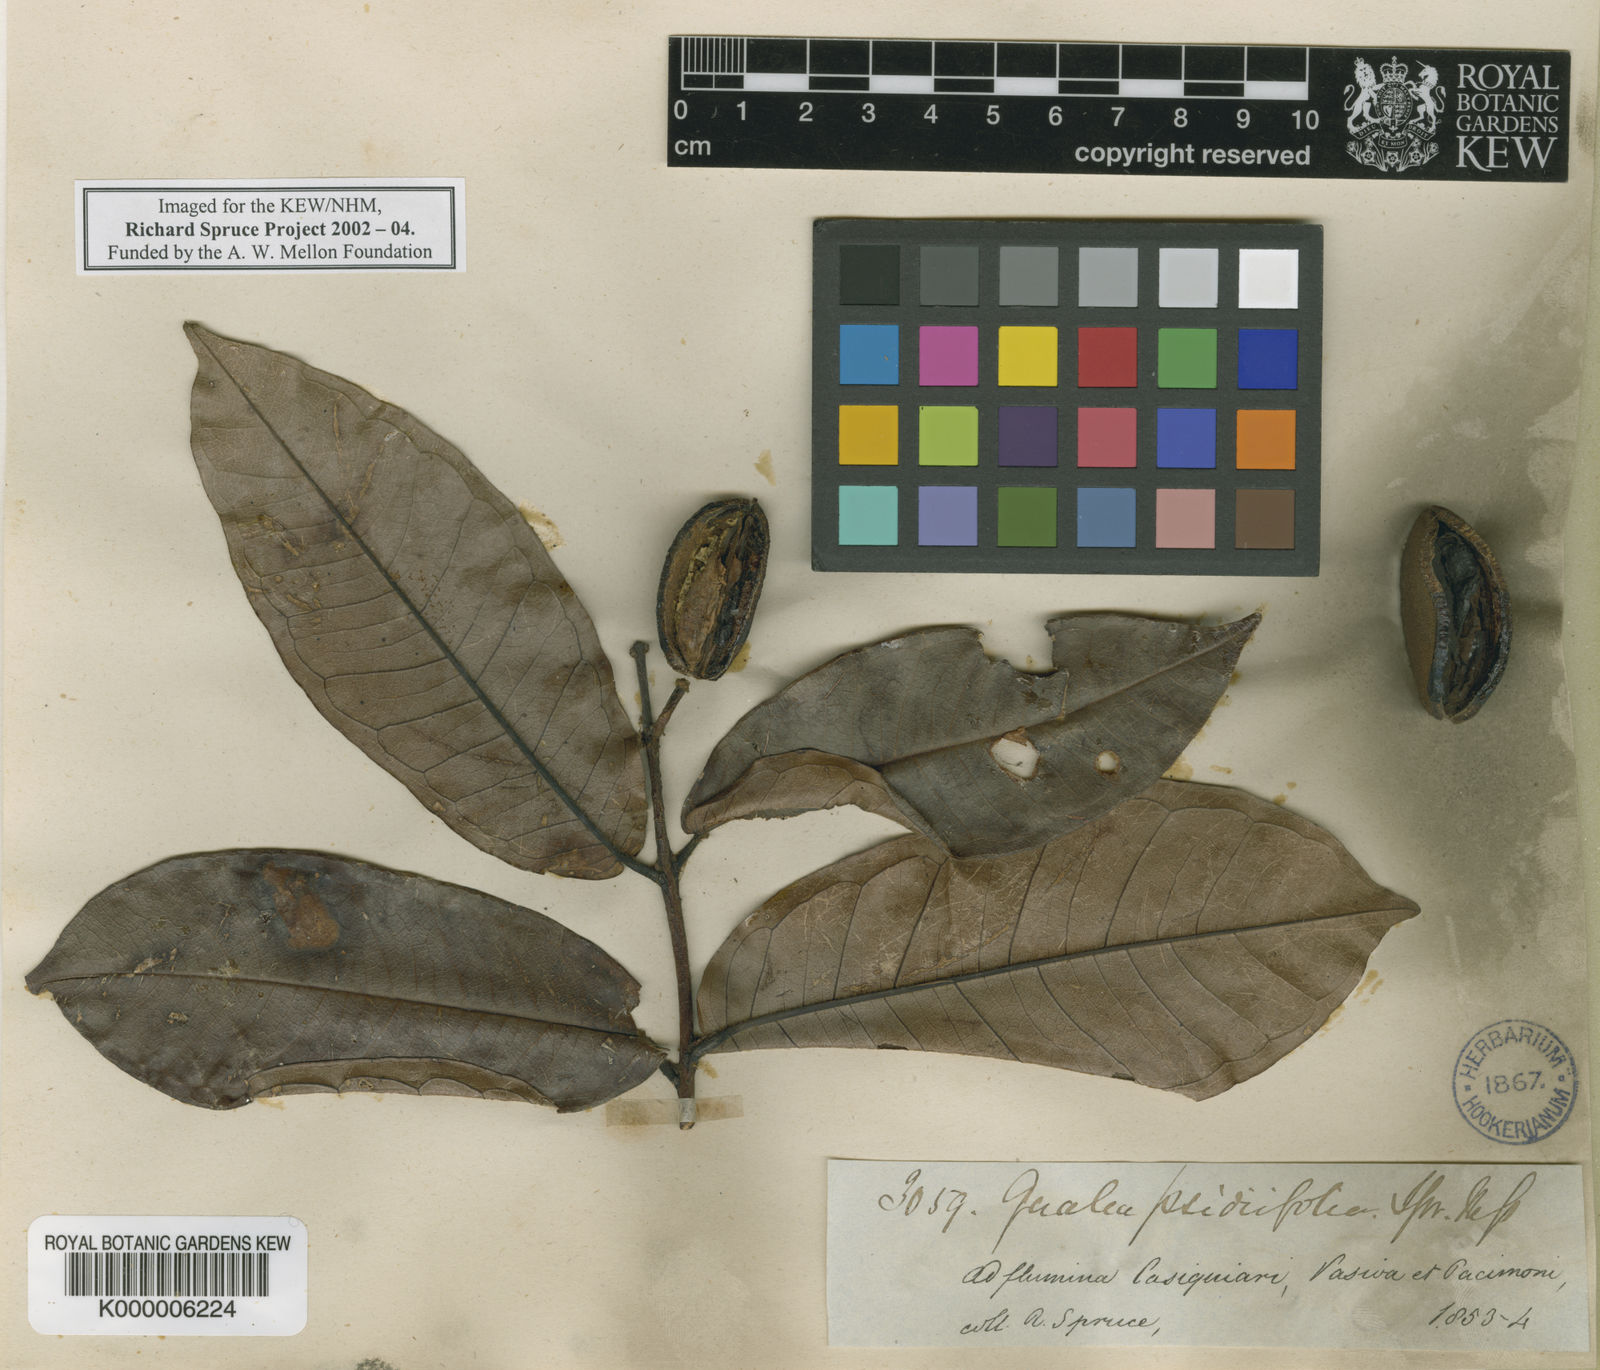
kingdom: Plantae
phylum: Tracheophyta
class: Magnoliopsida
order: Myrtales
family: Vochysiaceae
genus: Qualea
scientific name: Qualea psidiifolia
